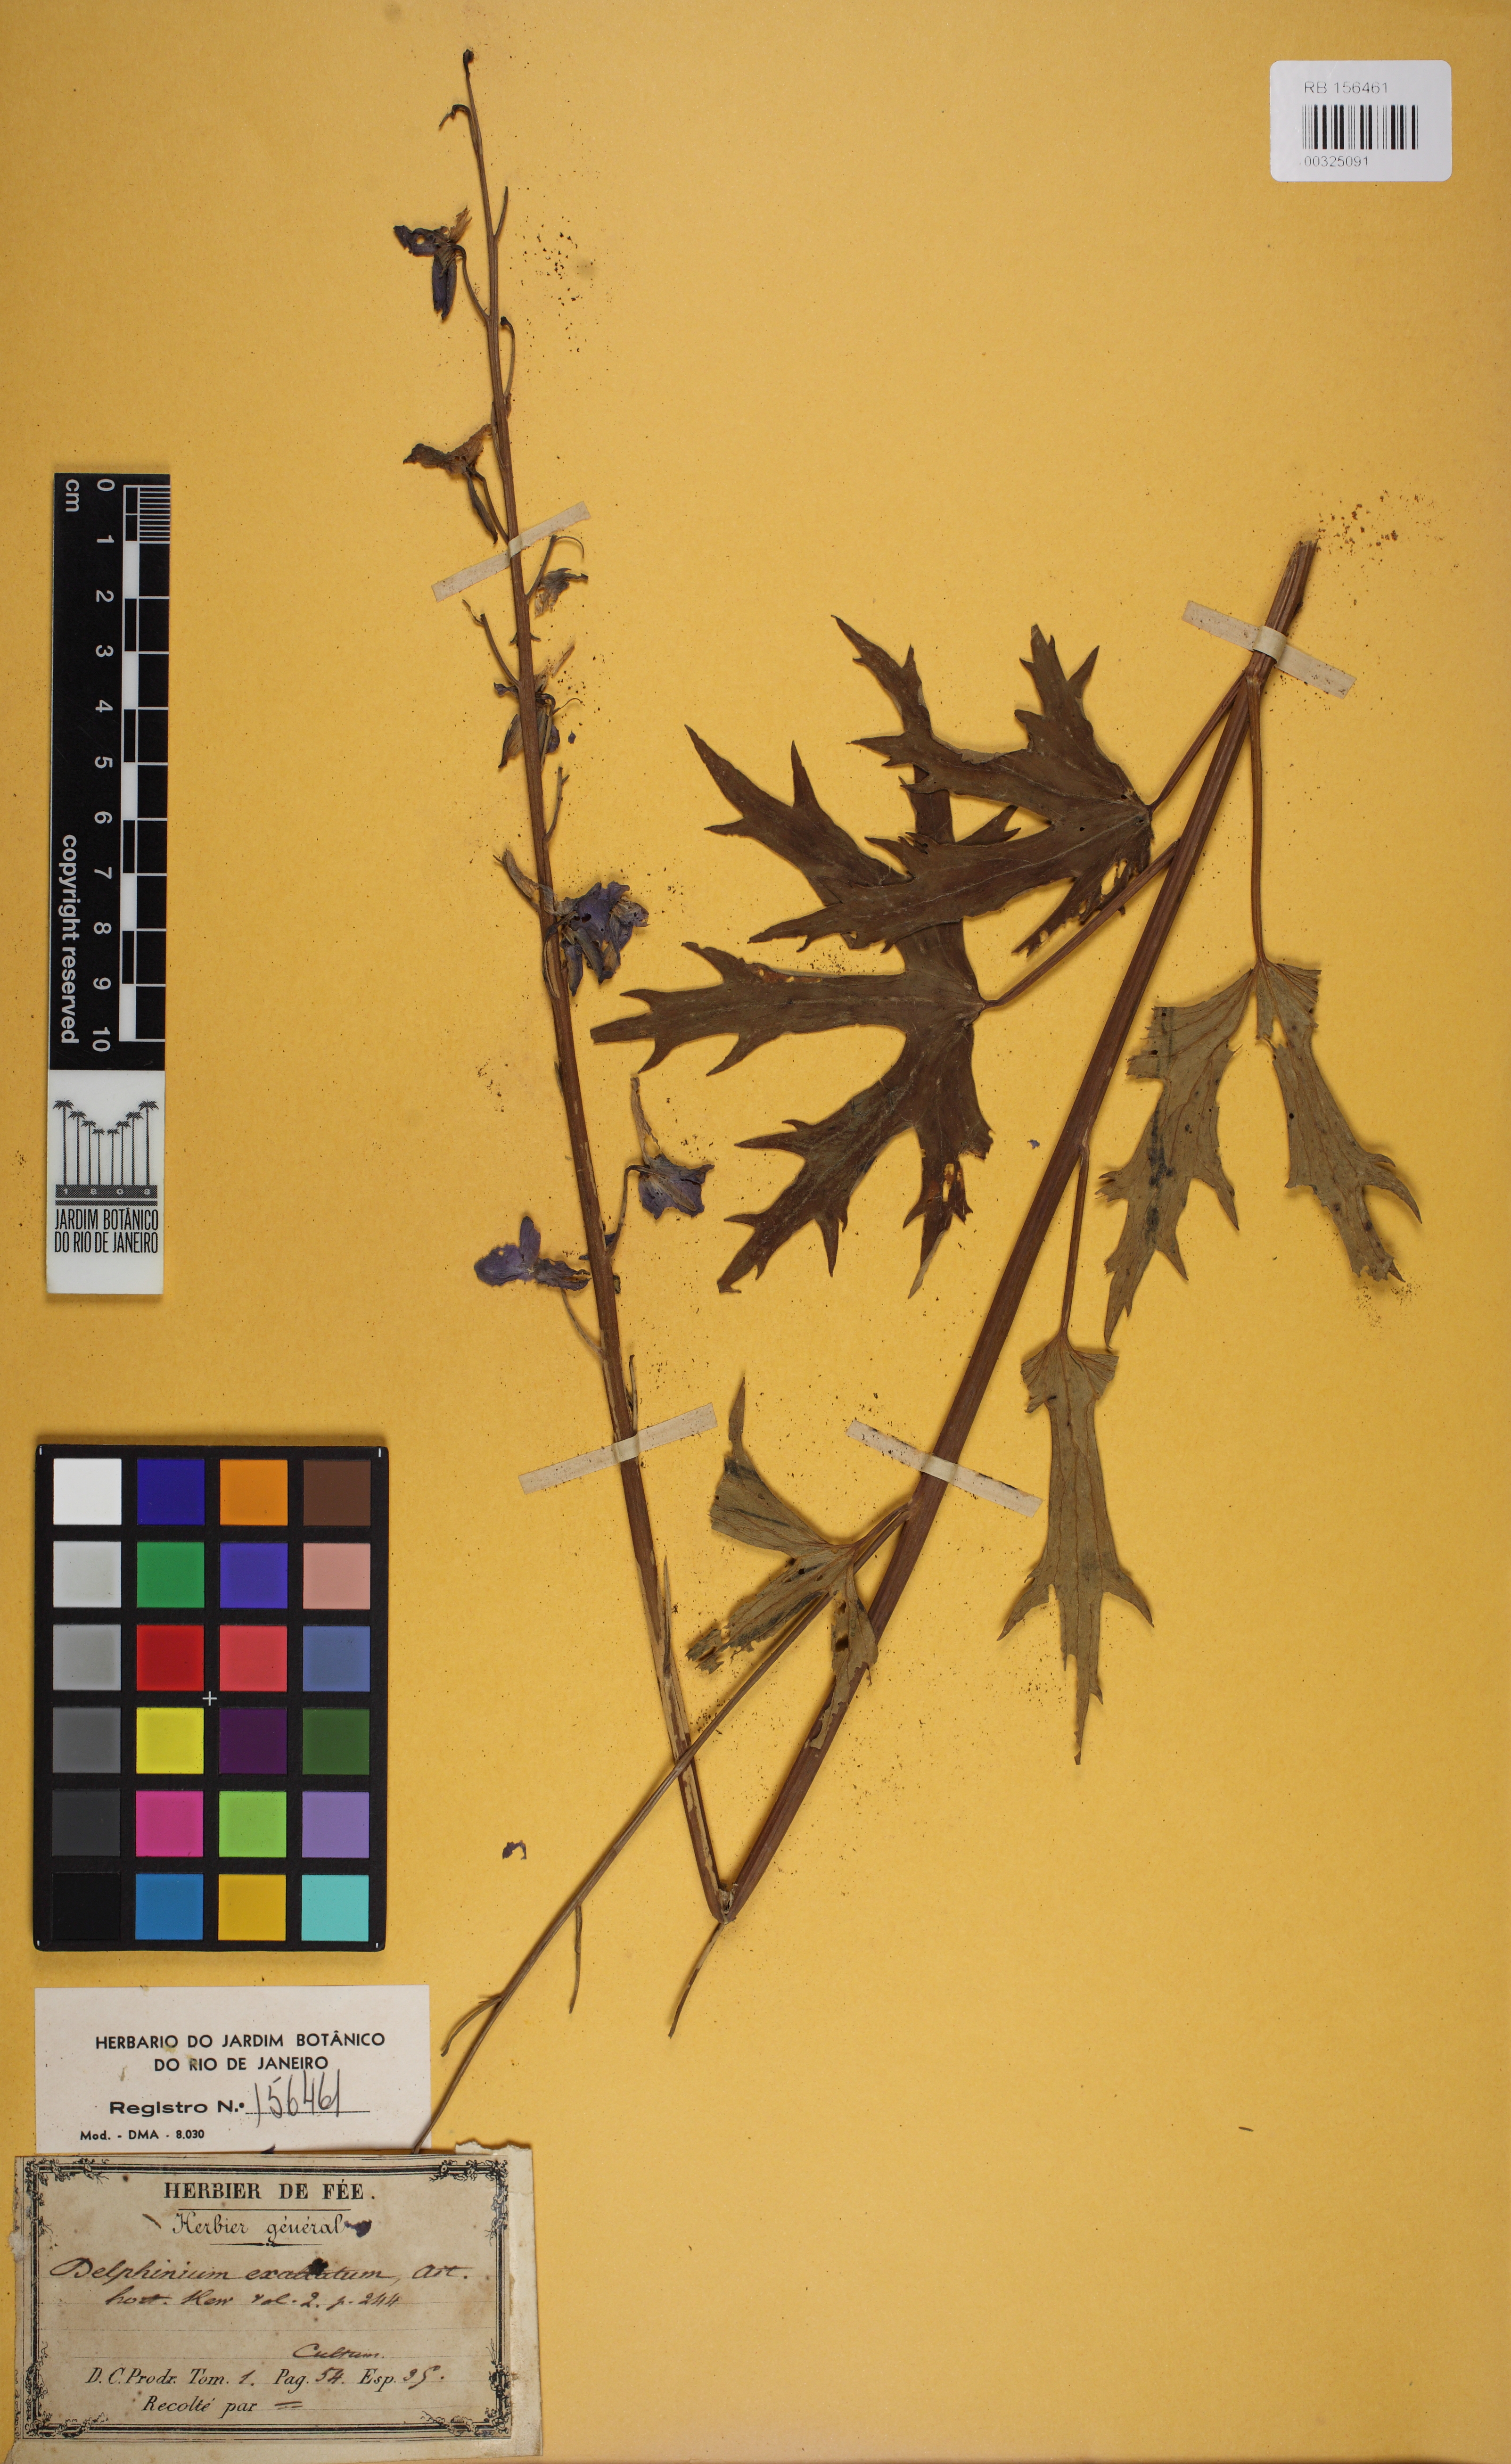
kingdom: Plantae
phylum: Tracheophyta
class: Magnoliopsida
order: Ranunculales
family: Ranunculaceae
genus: Delphinium
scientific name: Delphinium exaltatum
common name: Tall larkspur
